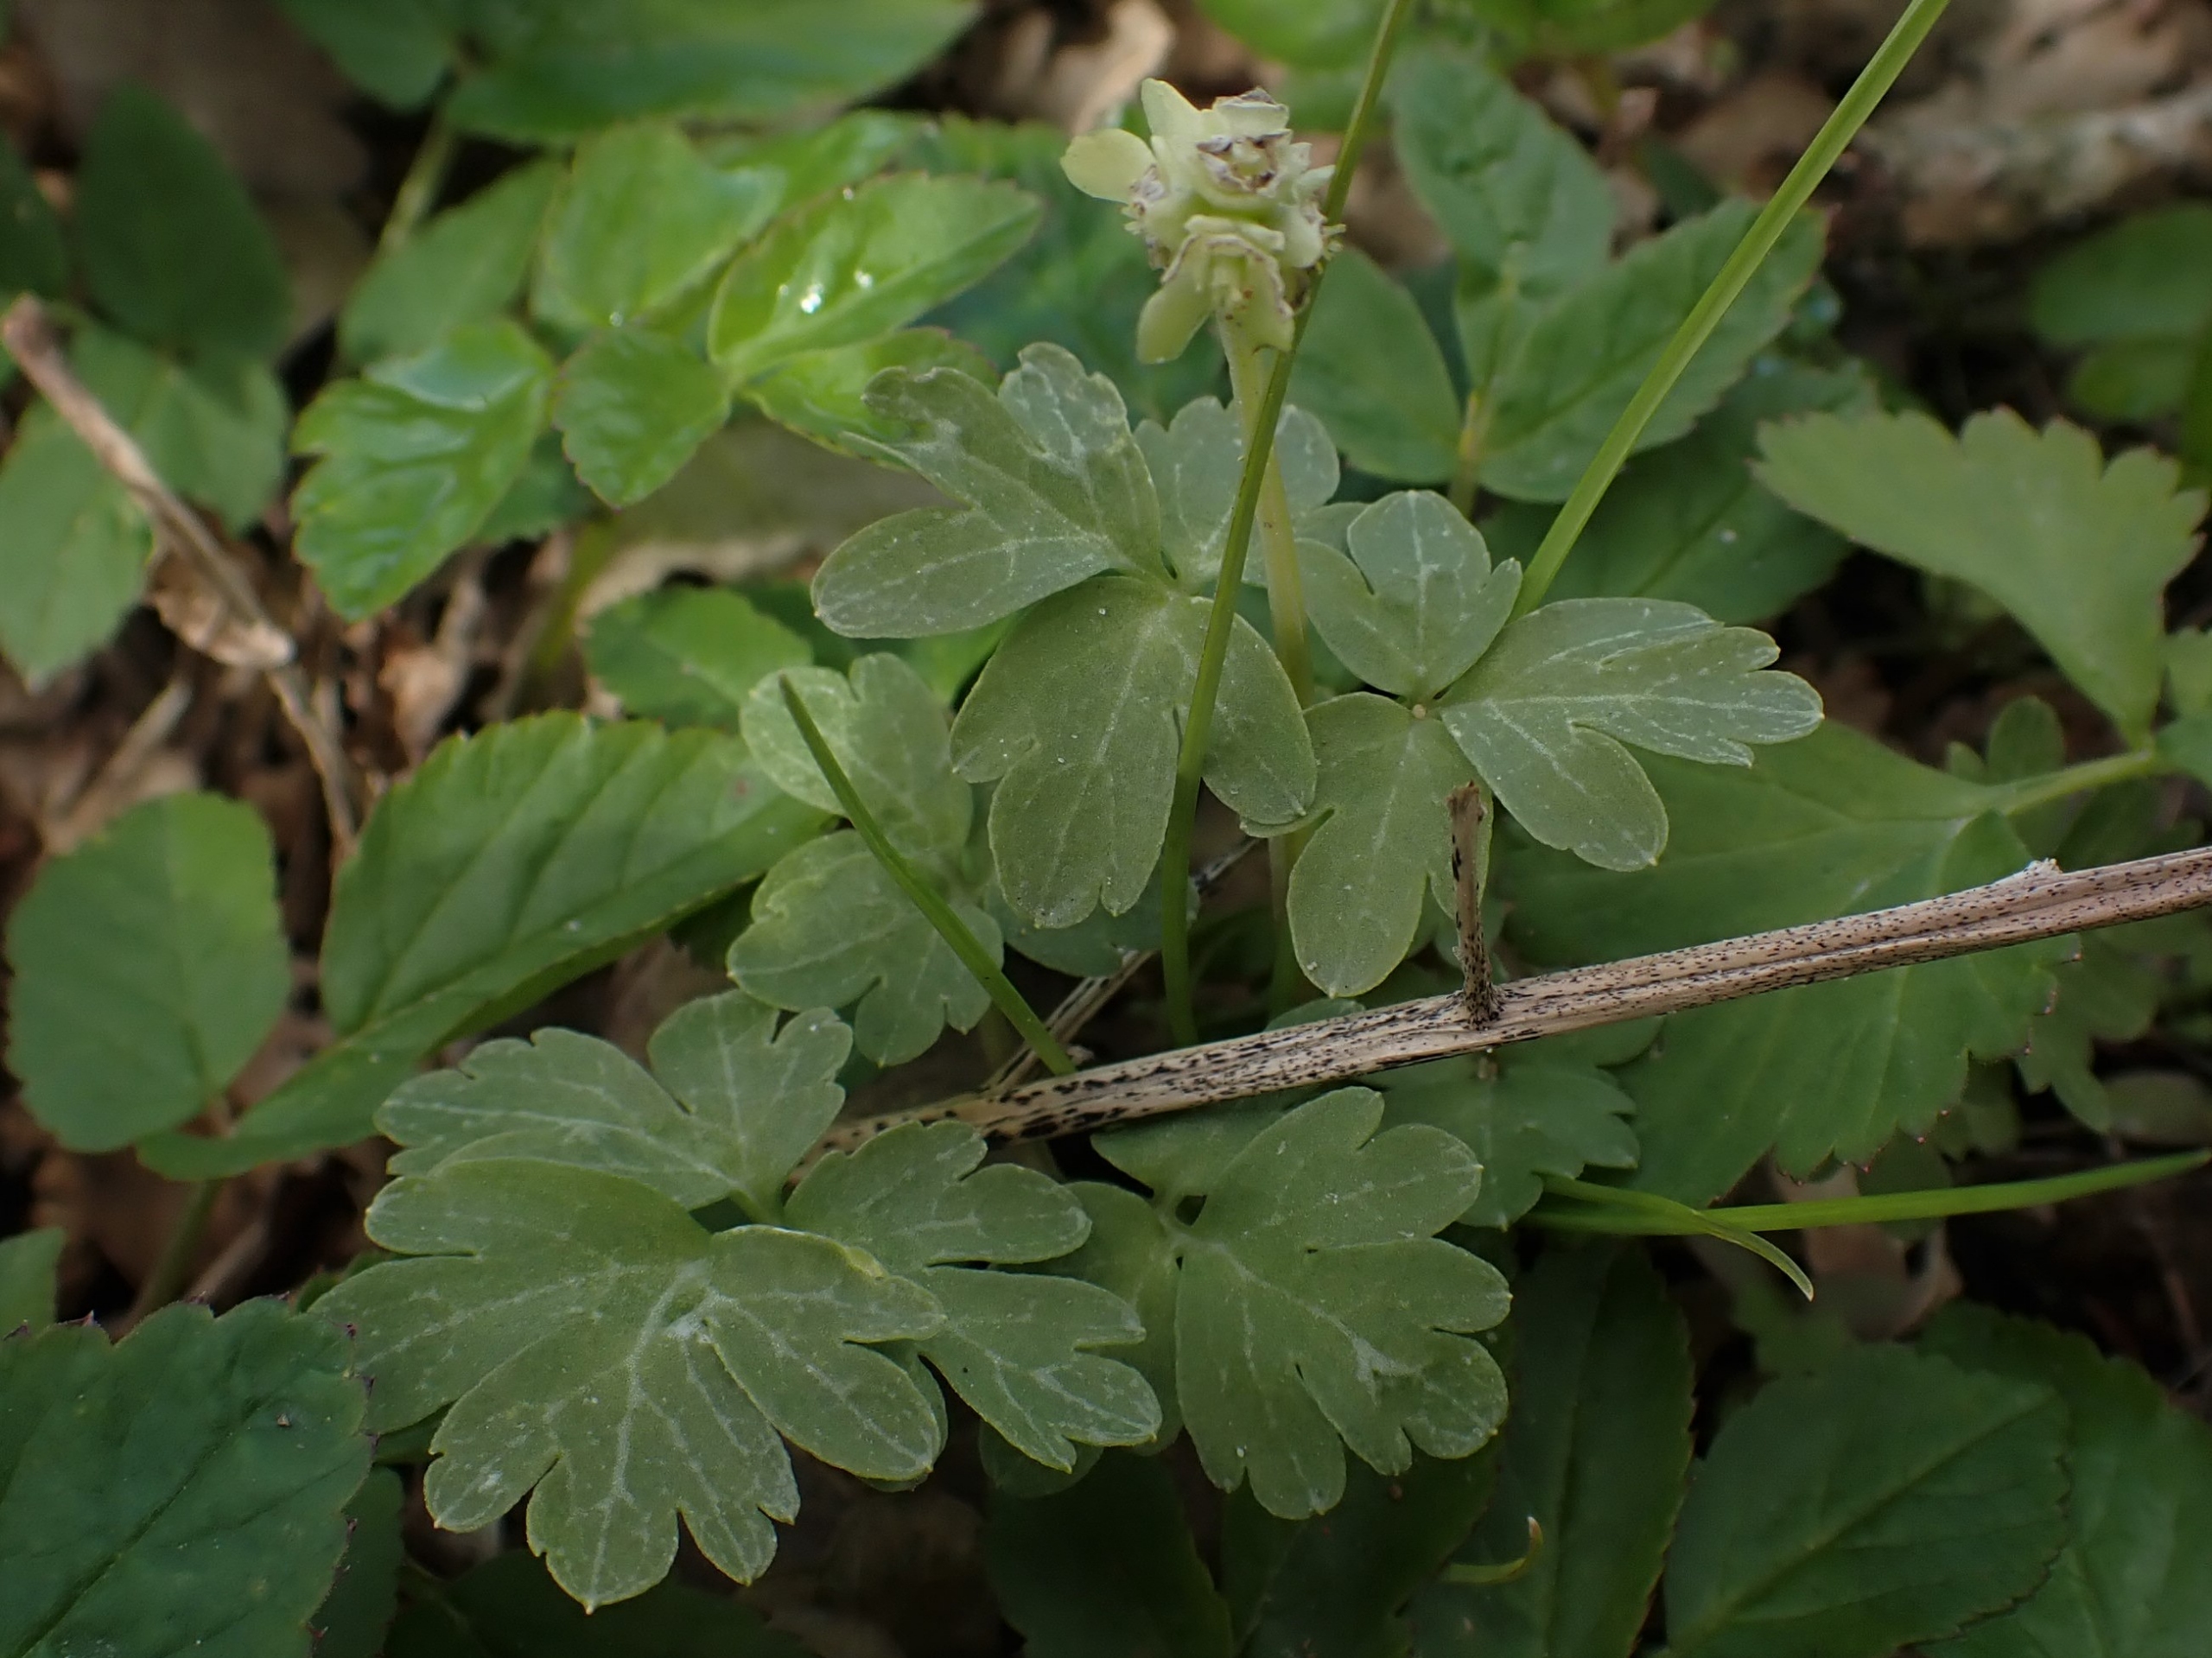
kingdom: Plantae
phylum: Tracheophyta
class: Magnoliopsida
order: Dipsacales
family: Viburnaceae
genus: Adoxa
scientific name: Adoxa moschatellina
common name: Desmerurt
